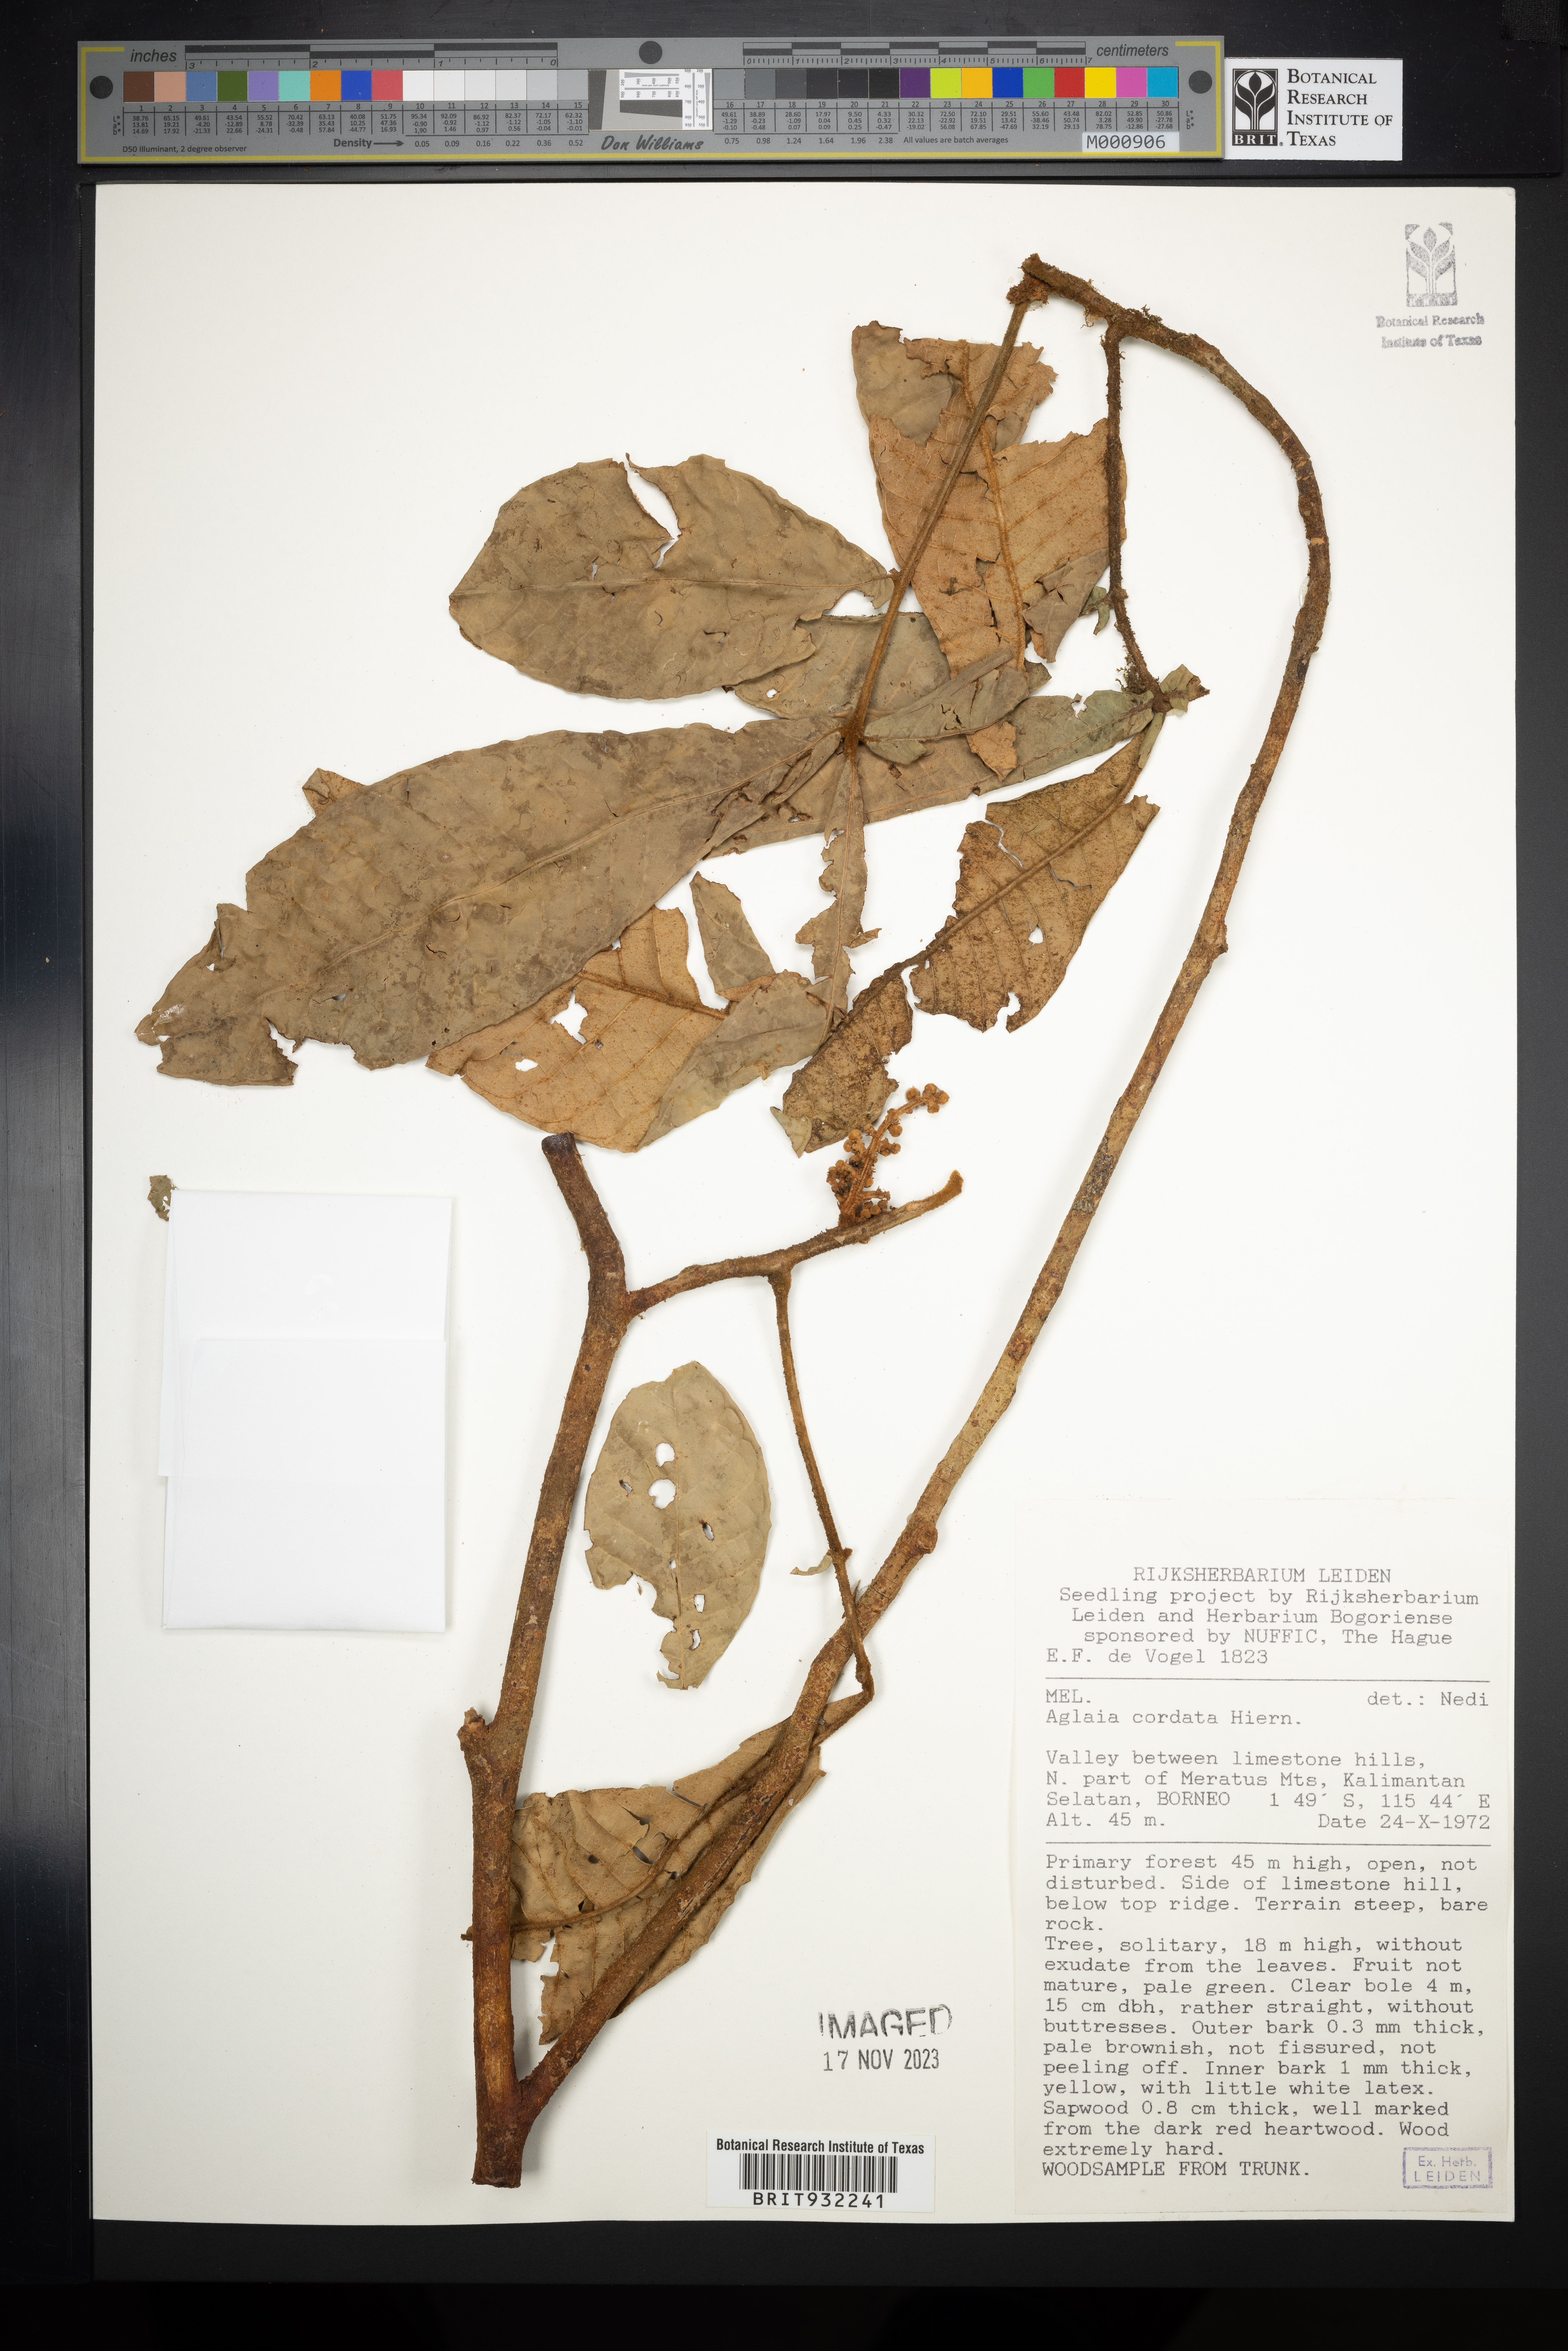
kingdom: Plantae
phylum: Tracheophyta
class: Magnoliopsida
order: Sapindales
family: Meliaceae
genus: Aglaia
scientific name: Aglaia
